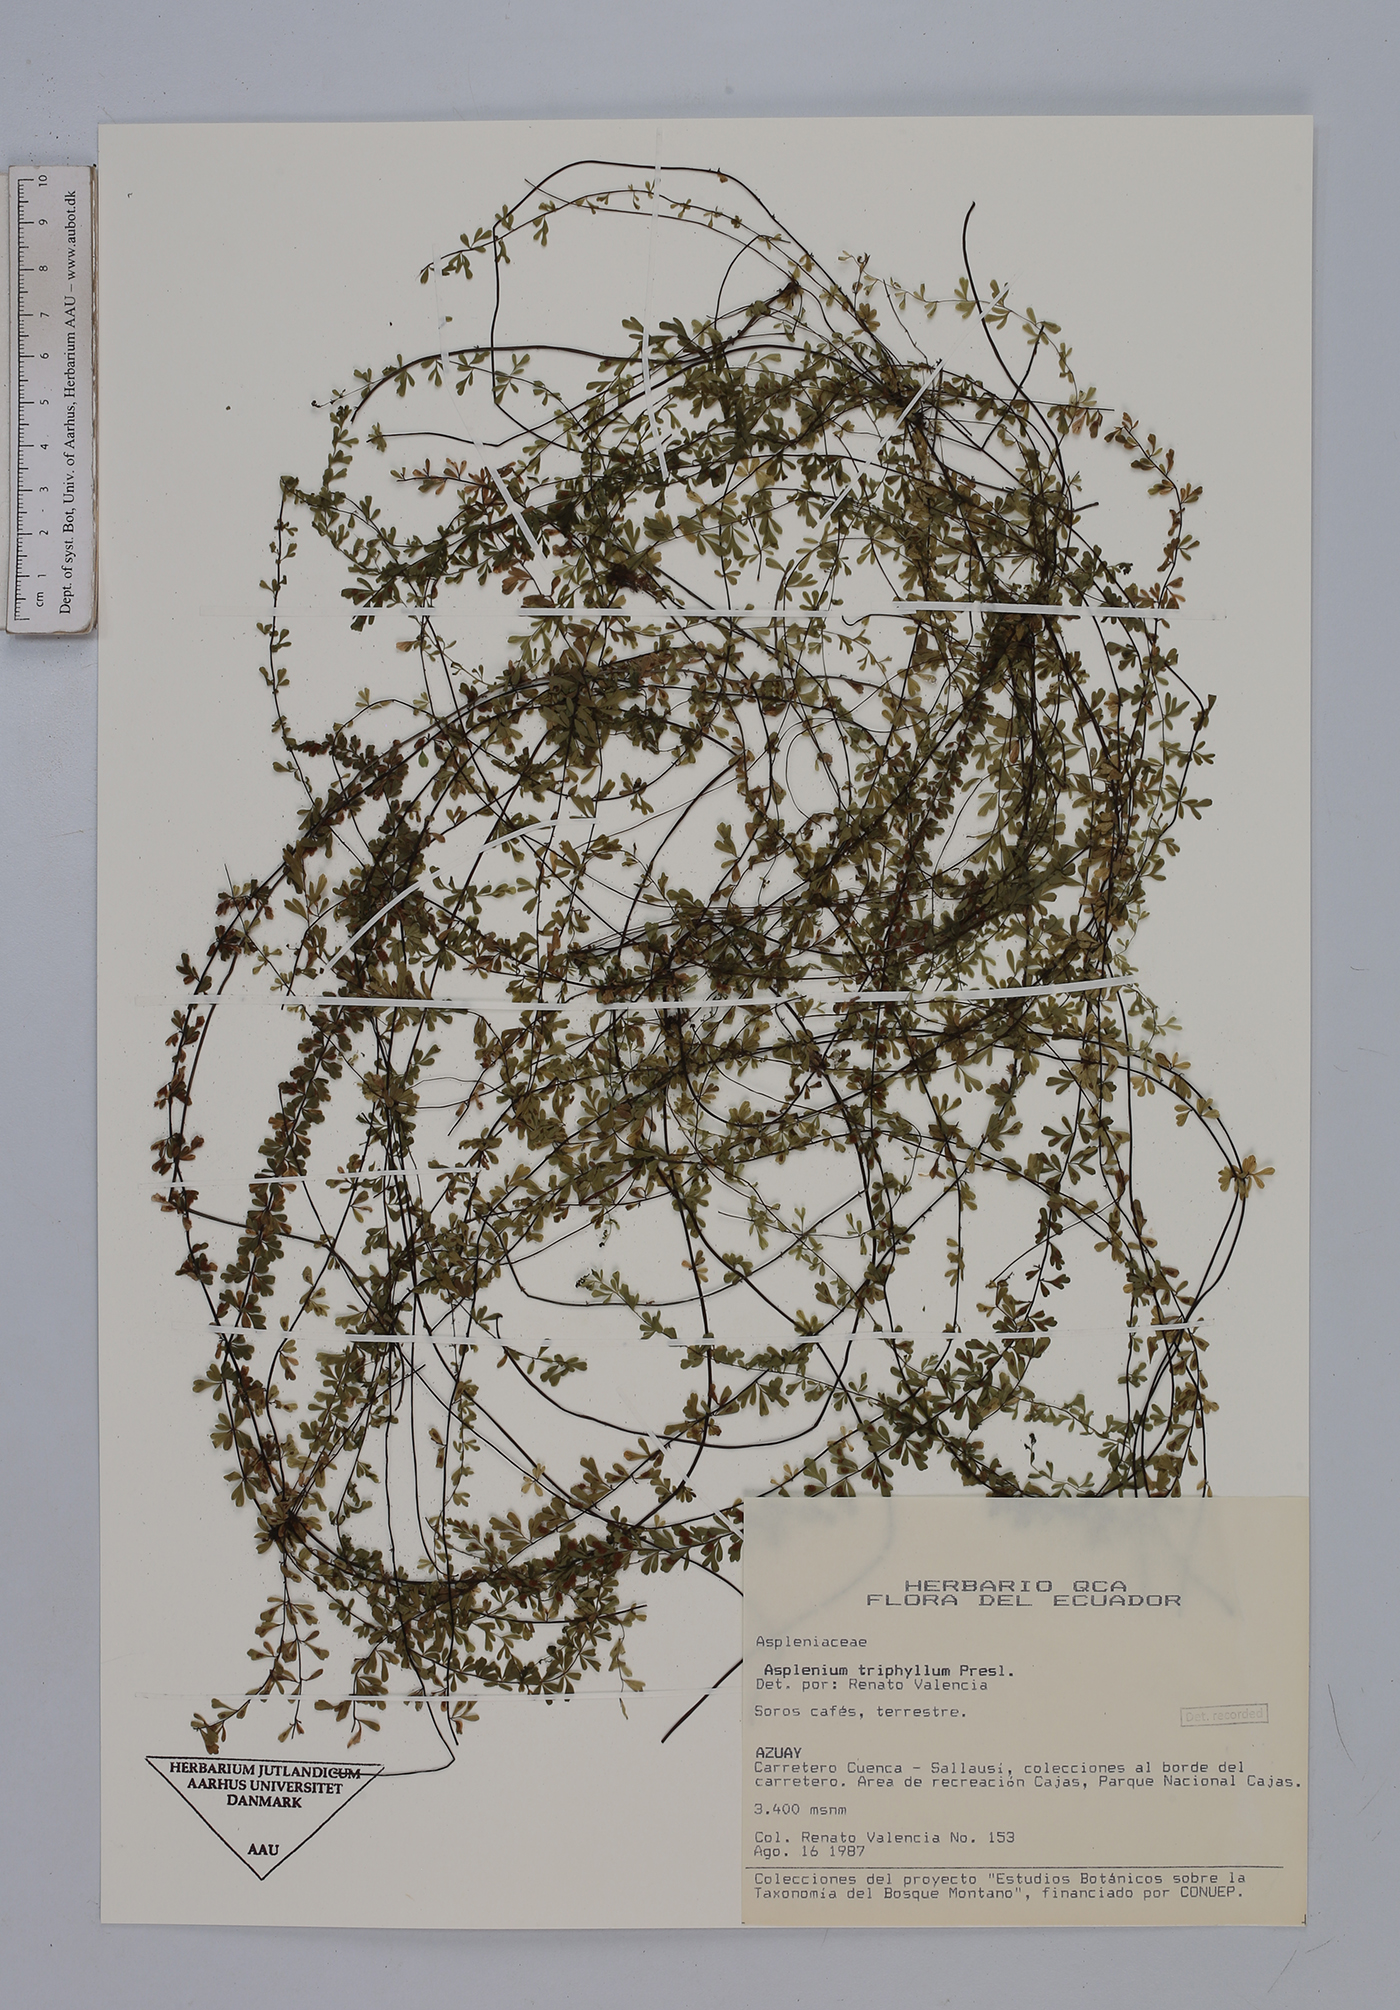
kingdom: Plantae
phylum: Tracheophyta
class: Polypodiopsida
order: Polypodiales
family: Aspleniaceae
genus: Asplenium
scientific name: Asplenium triphyllum
